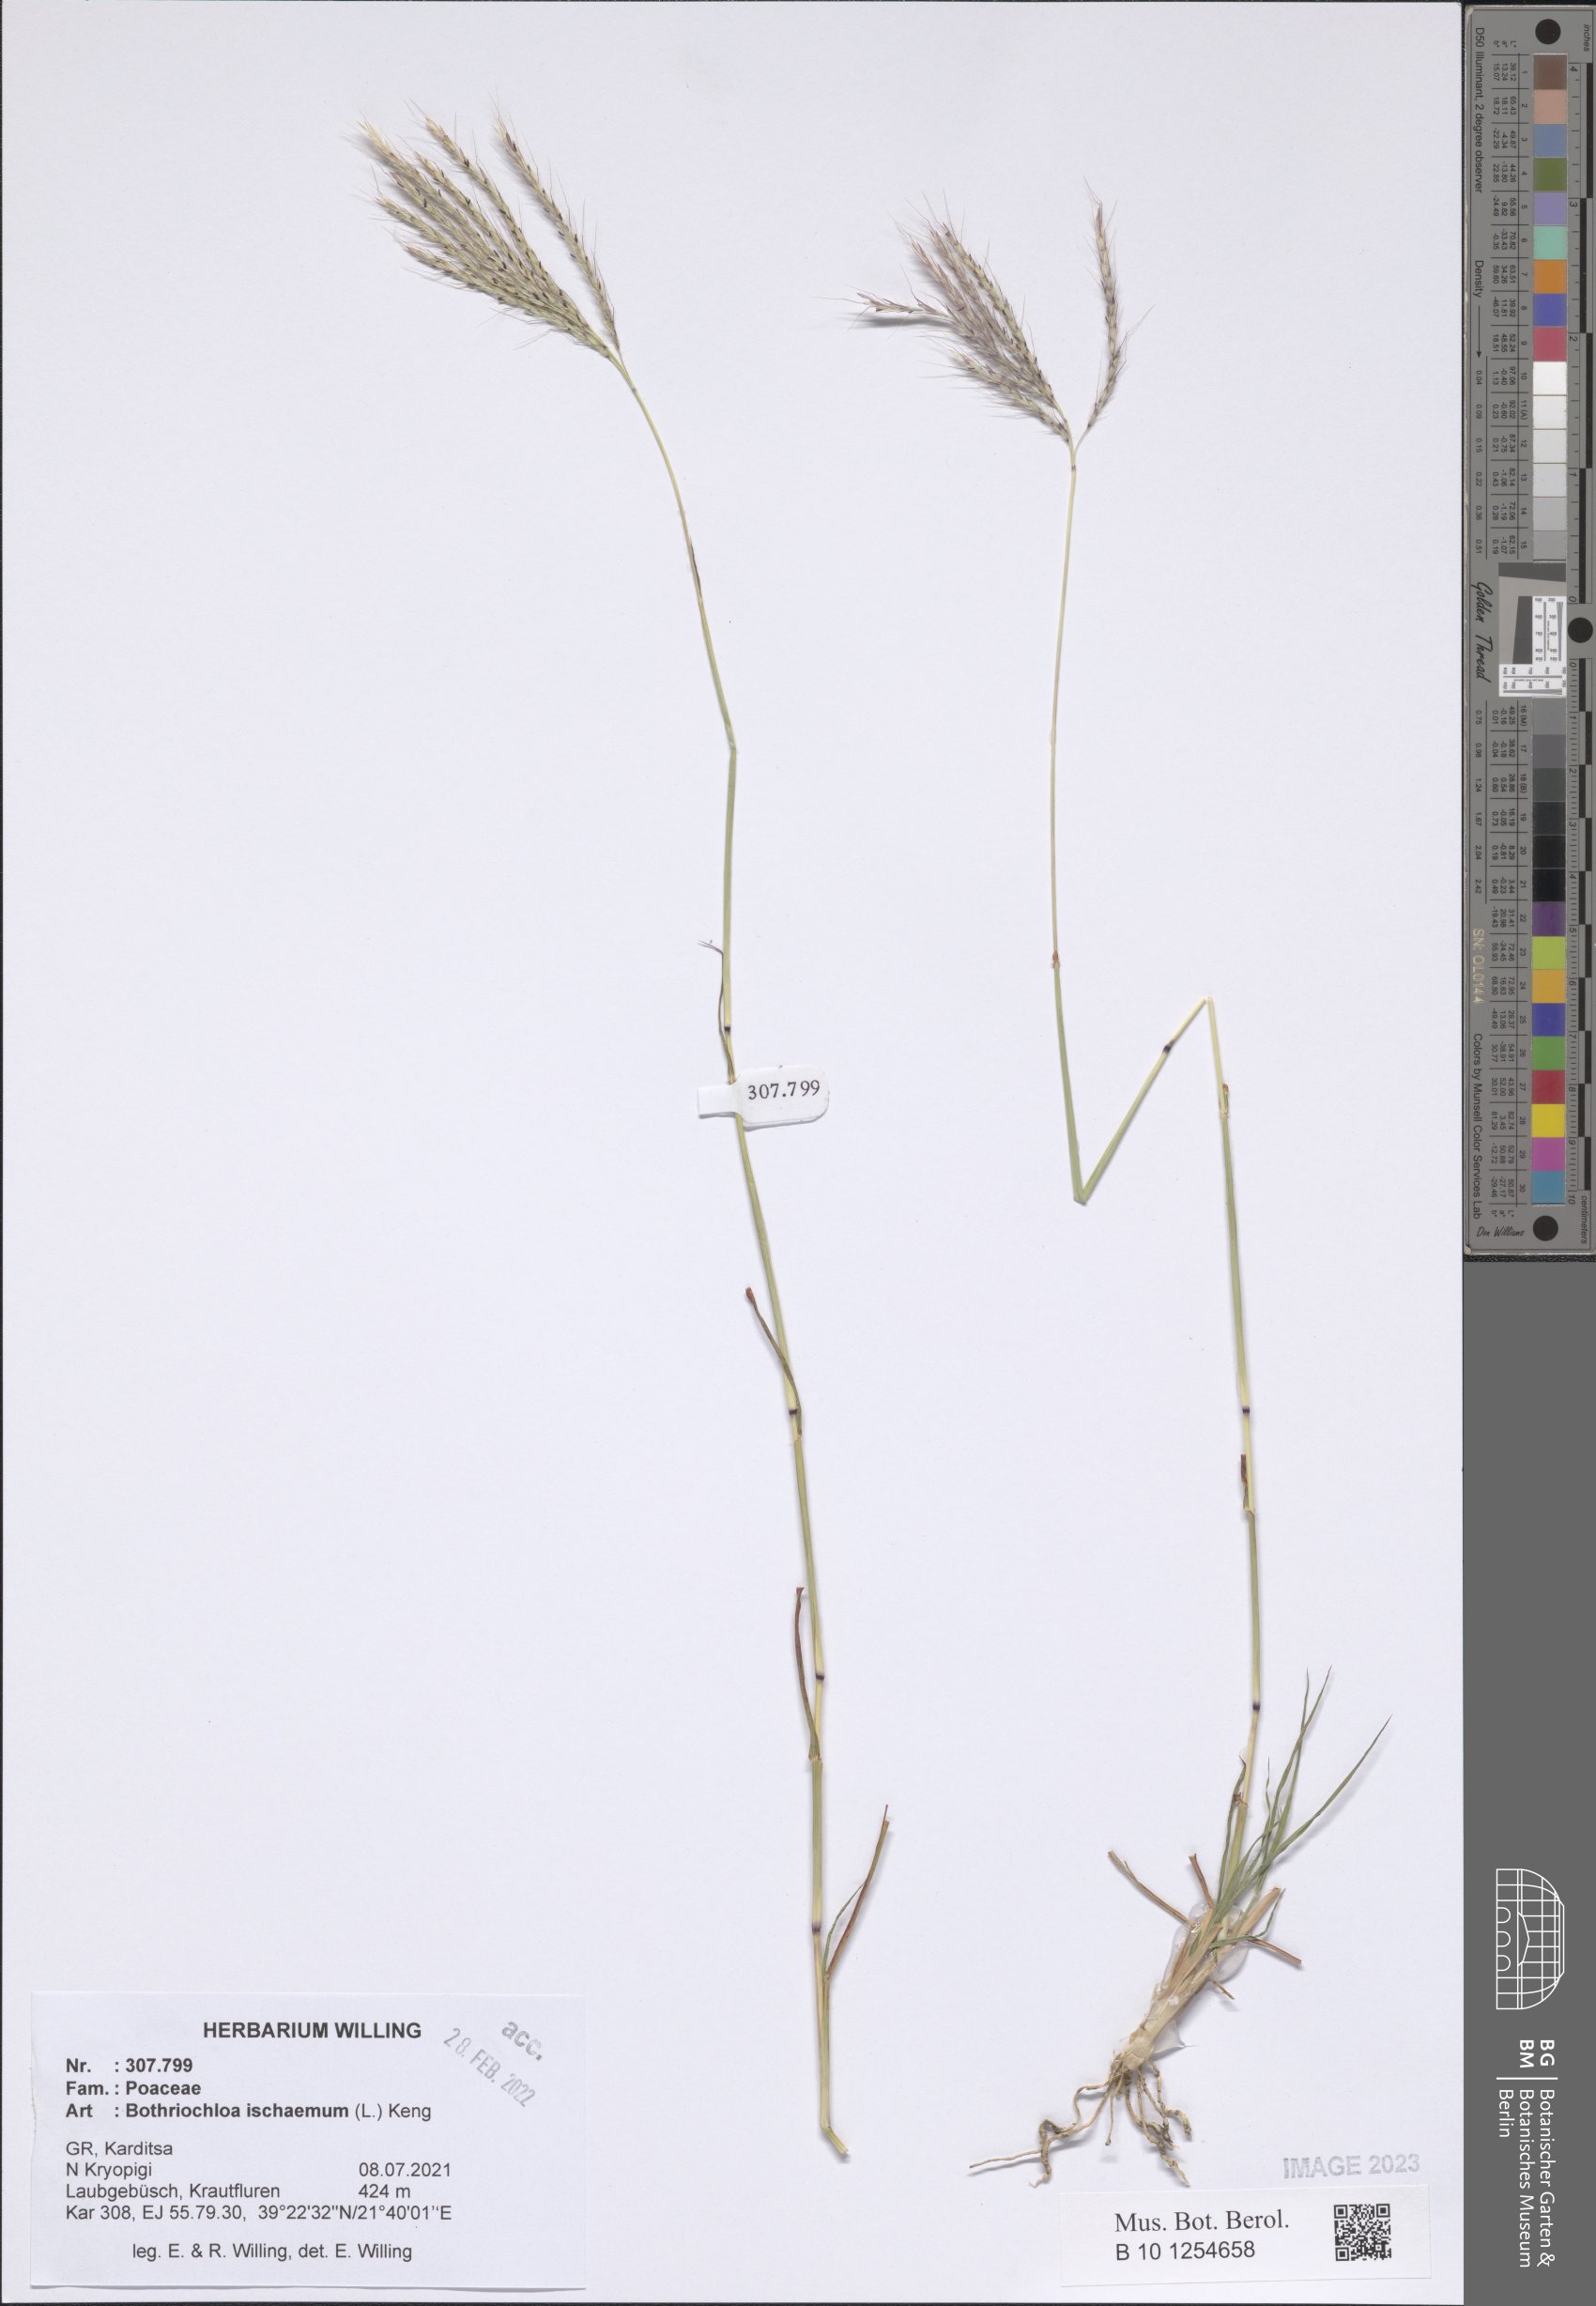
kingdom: Plantae
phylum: Tracheophyta
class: Liliopsida
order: Poales
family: Poaceae
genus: Bothriochloa
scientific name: Bothriochloa ischaemum
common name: Yellow bluestem
